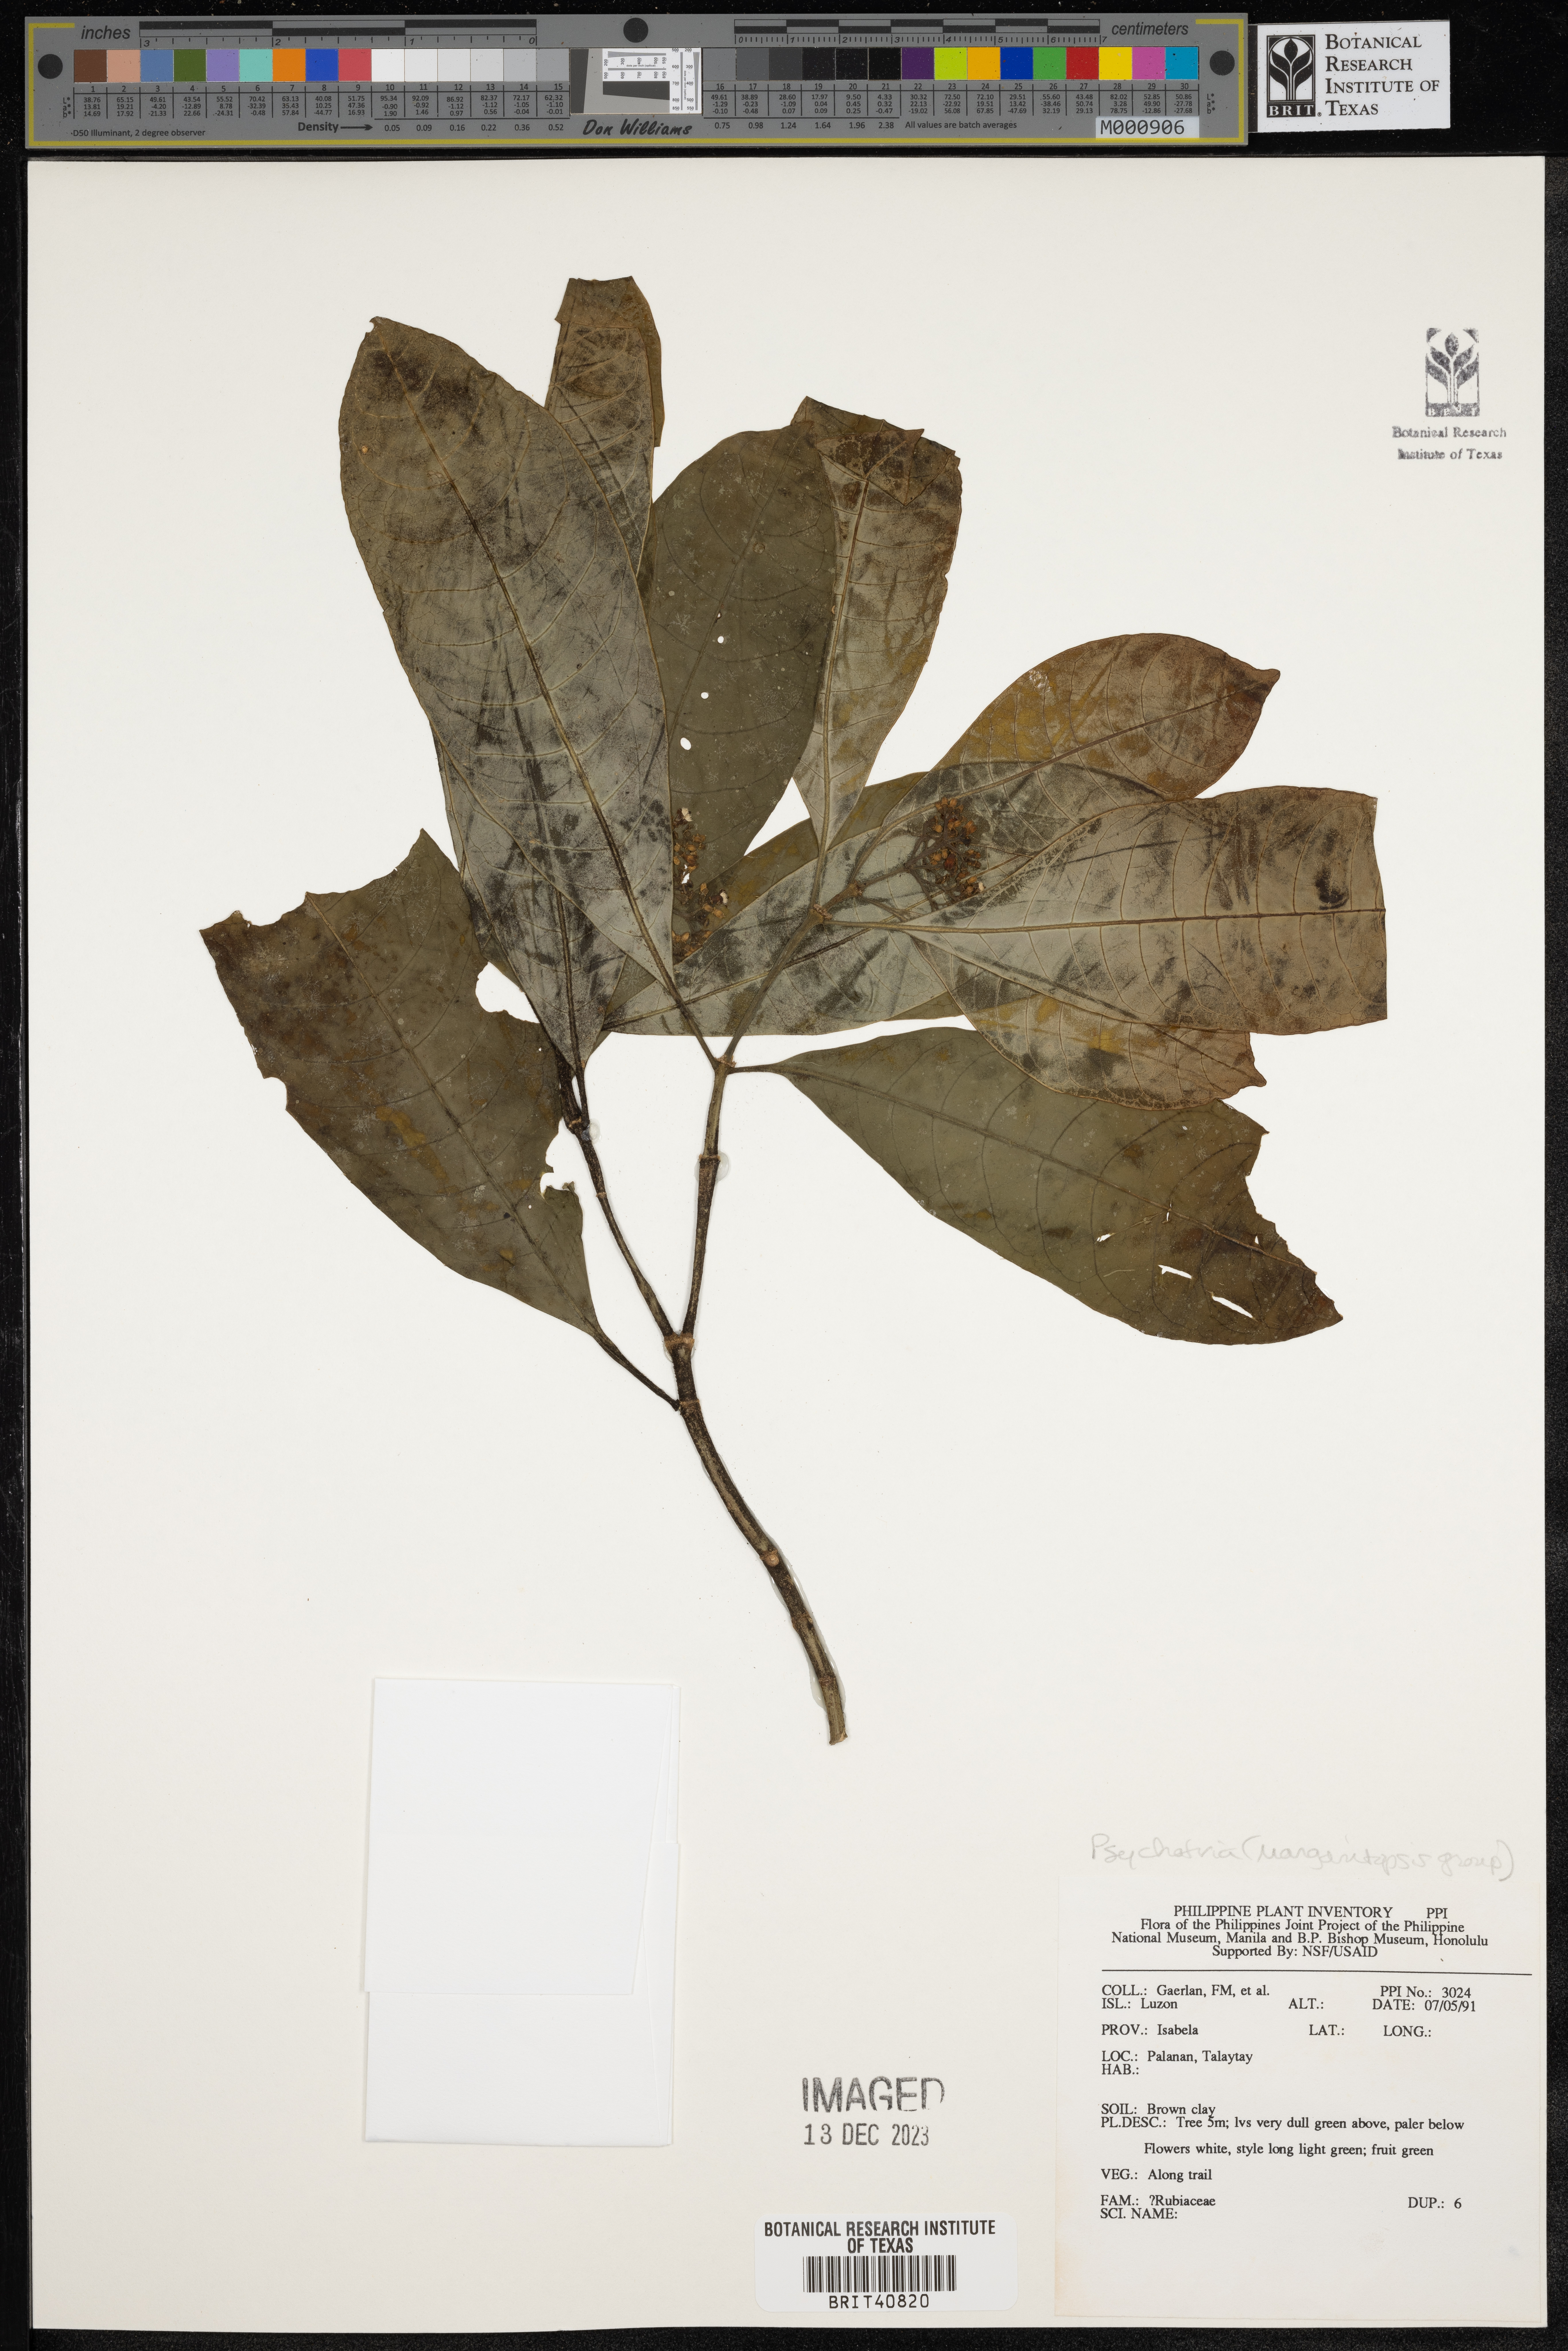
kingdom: Plantae
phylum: Tracheophyta
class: Magnoliopsida
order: Gentianales
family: Rubiaceae
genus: Psychotria
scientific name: Psychotria
